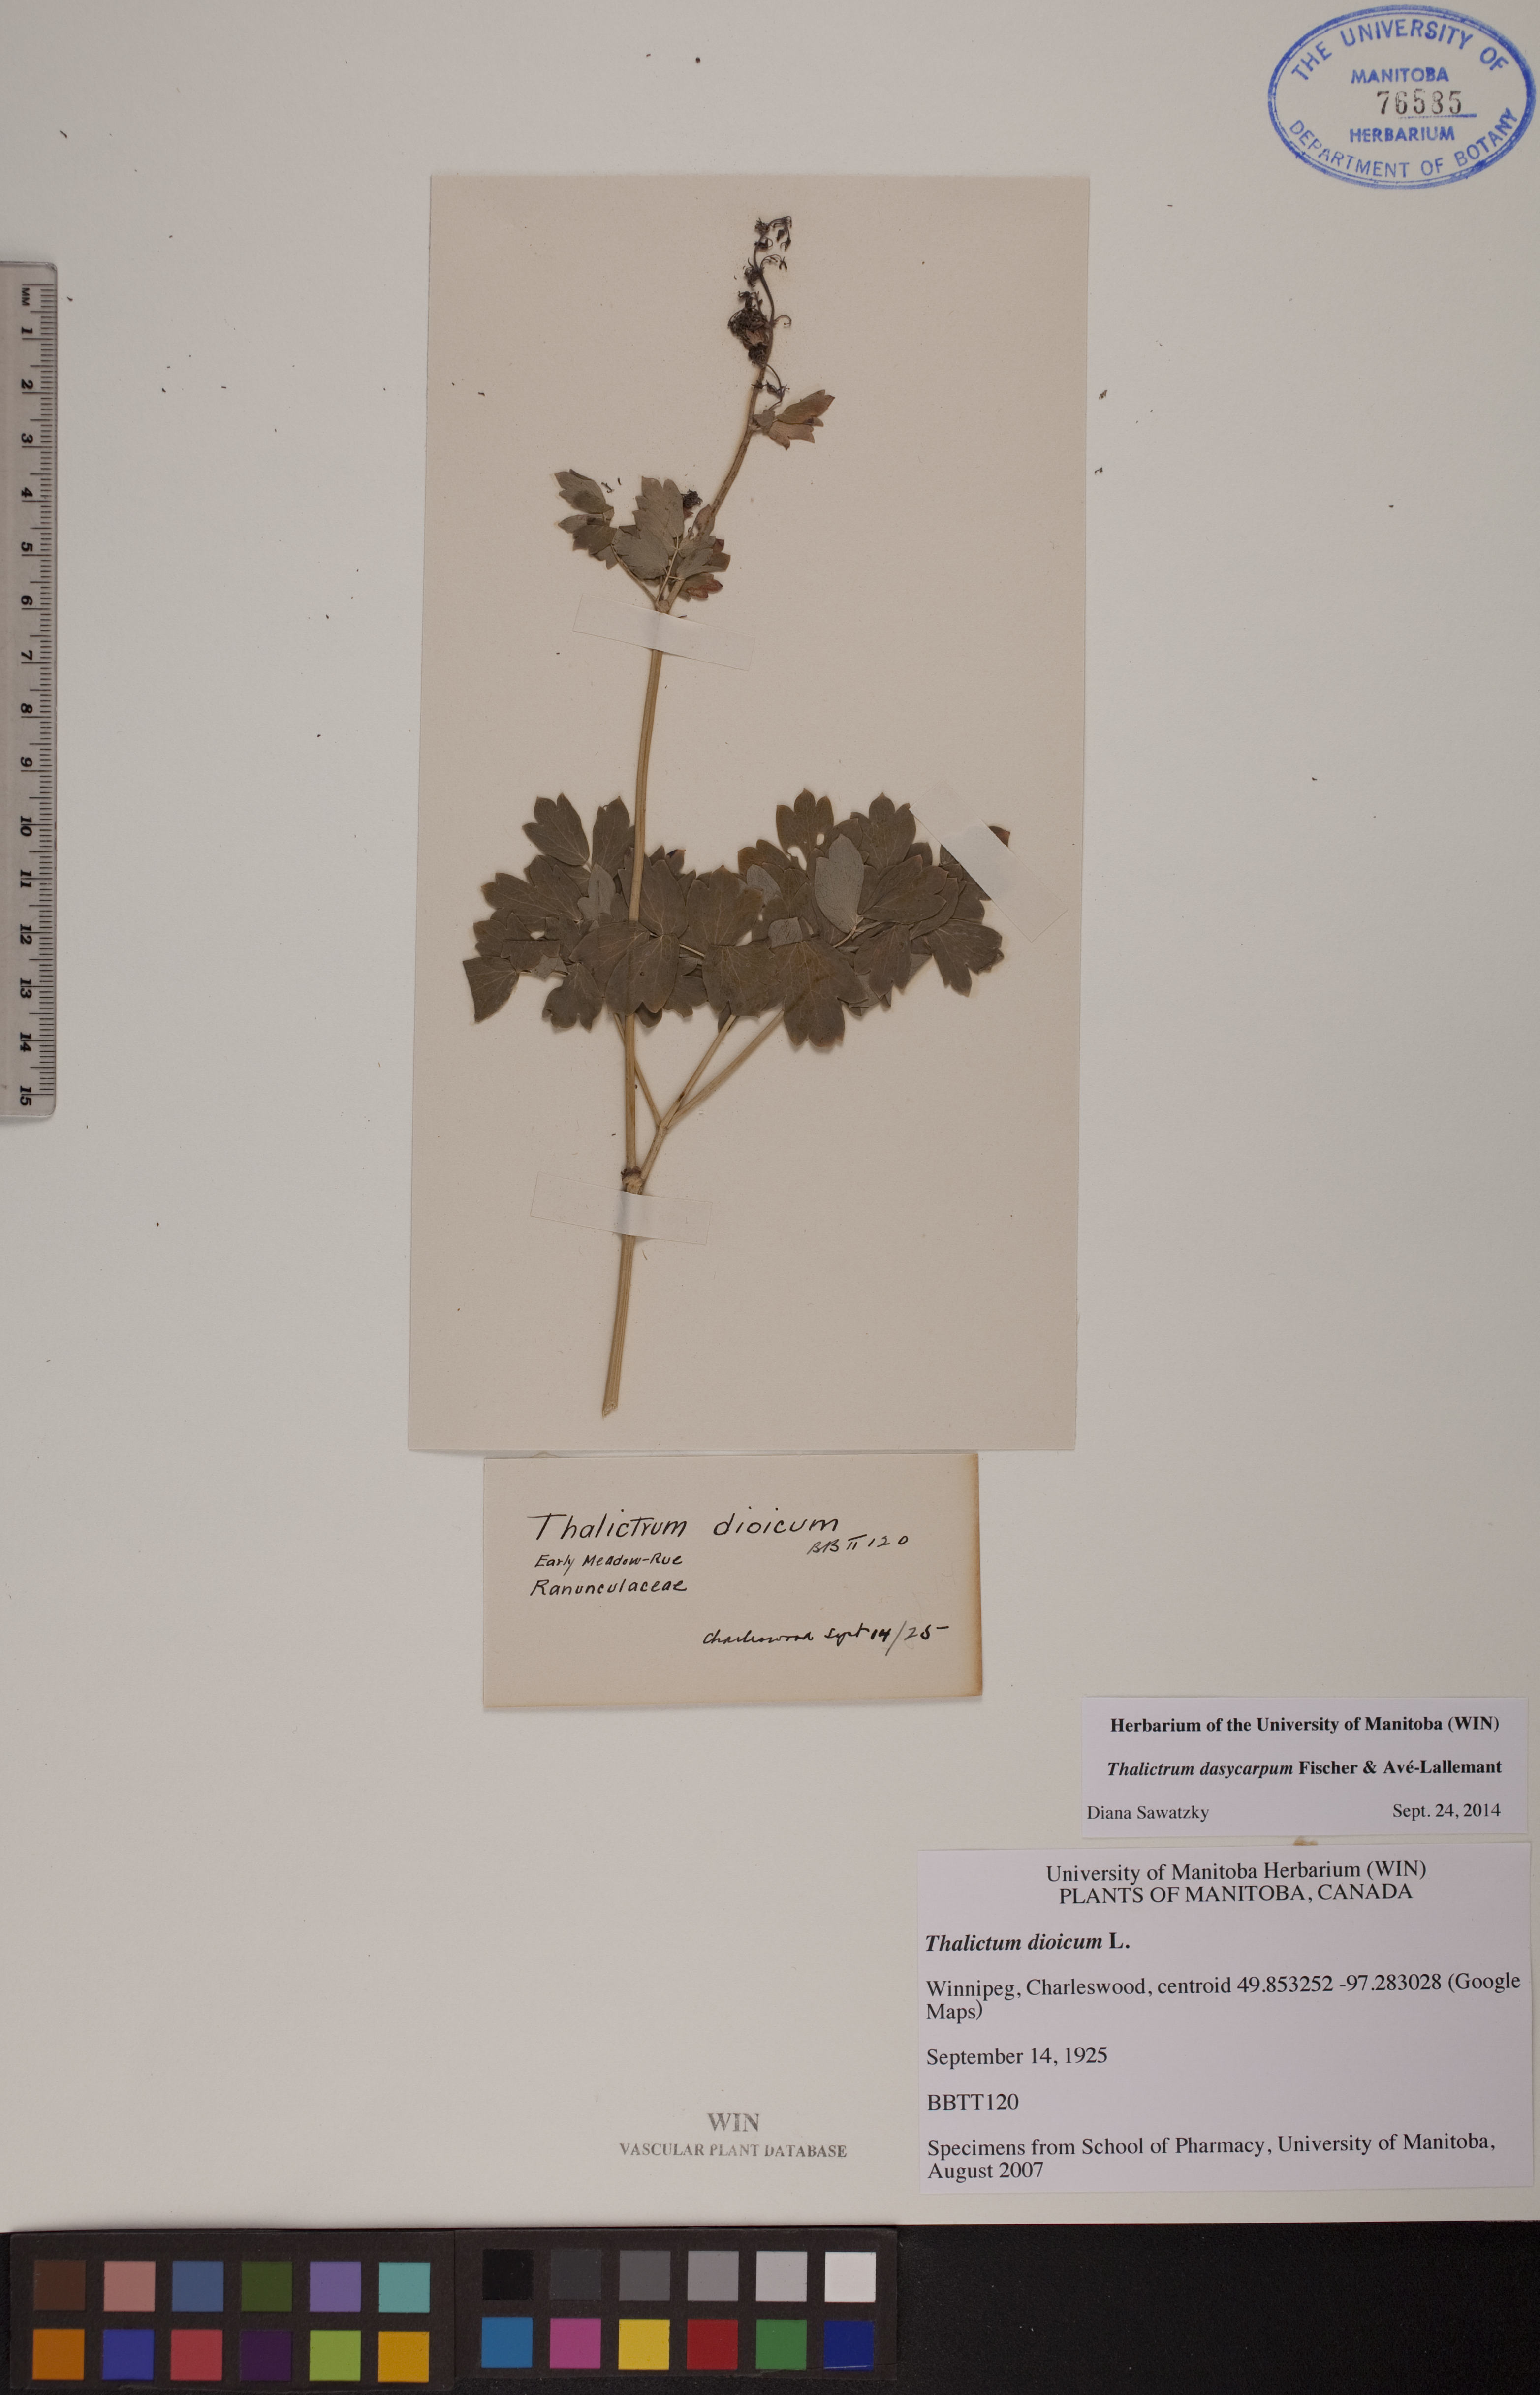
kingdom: Plantae
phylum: Tracheophyta
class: Magnoliopsida
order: Ranunculales
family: Ranunculaceae
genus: Thalictrum
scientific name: Thalictrum dasycarpum
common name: Purple meadow-rue
